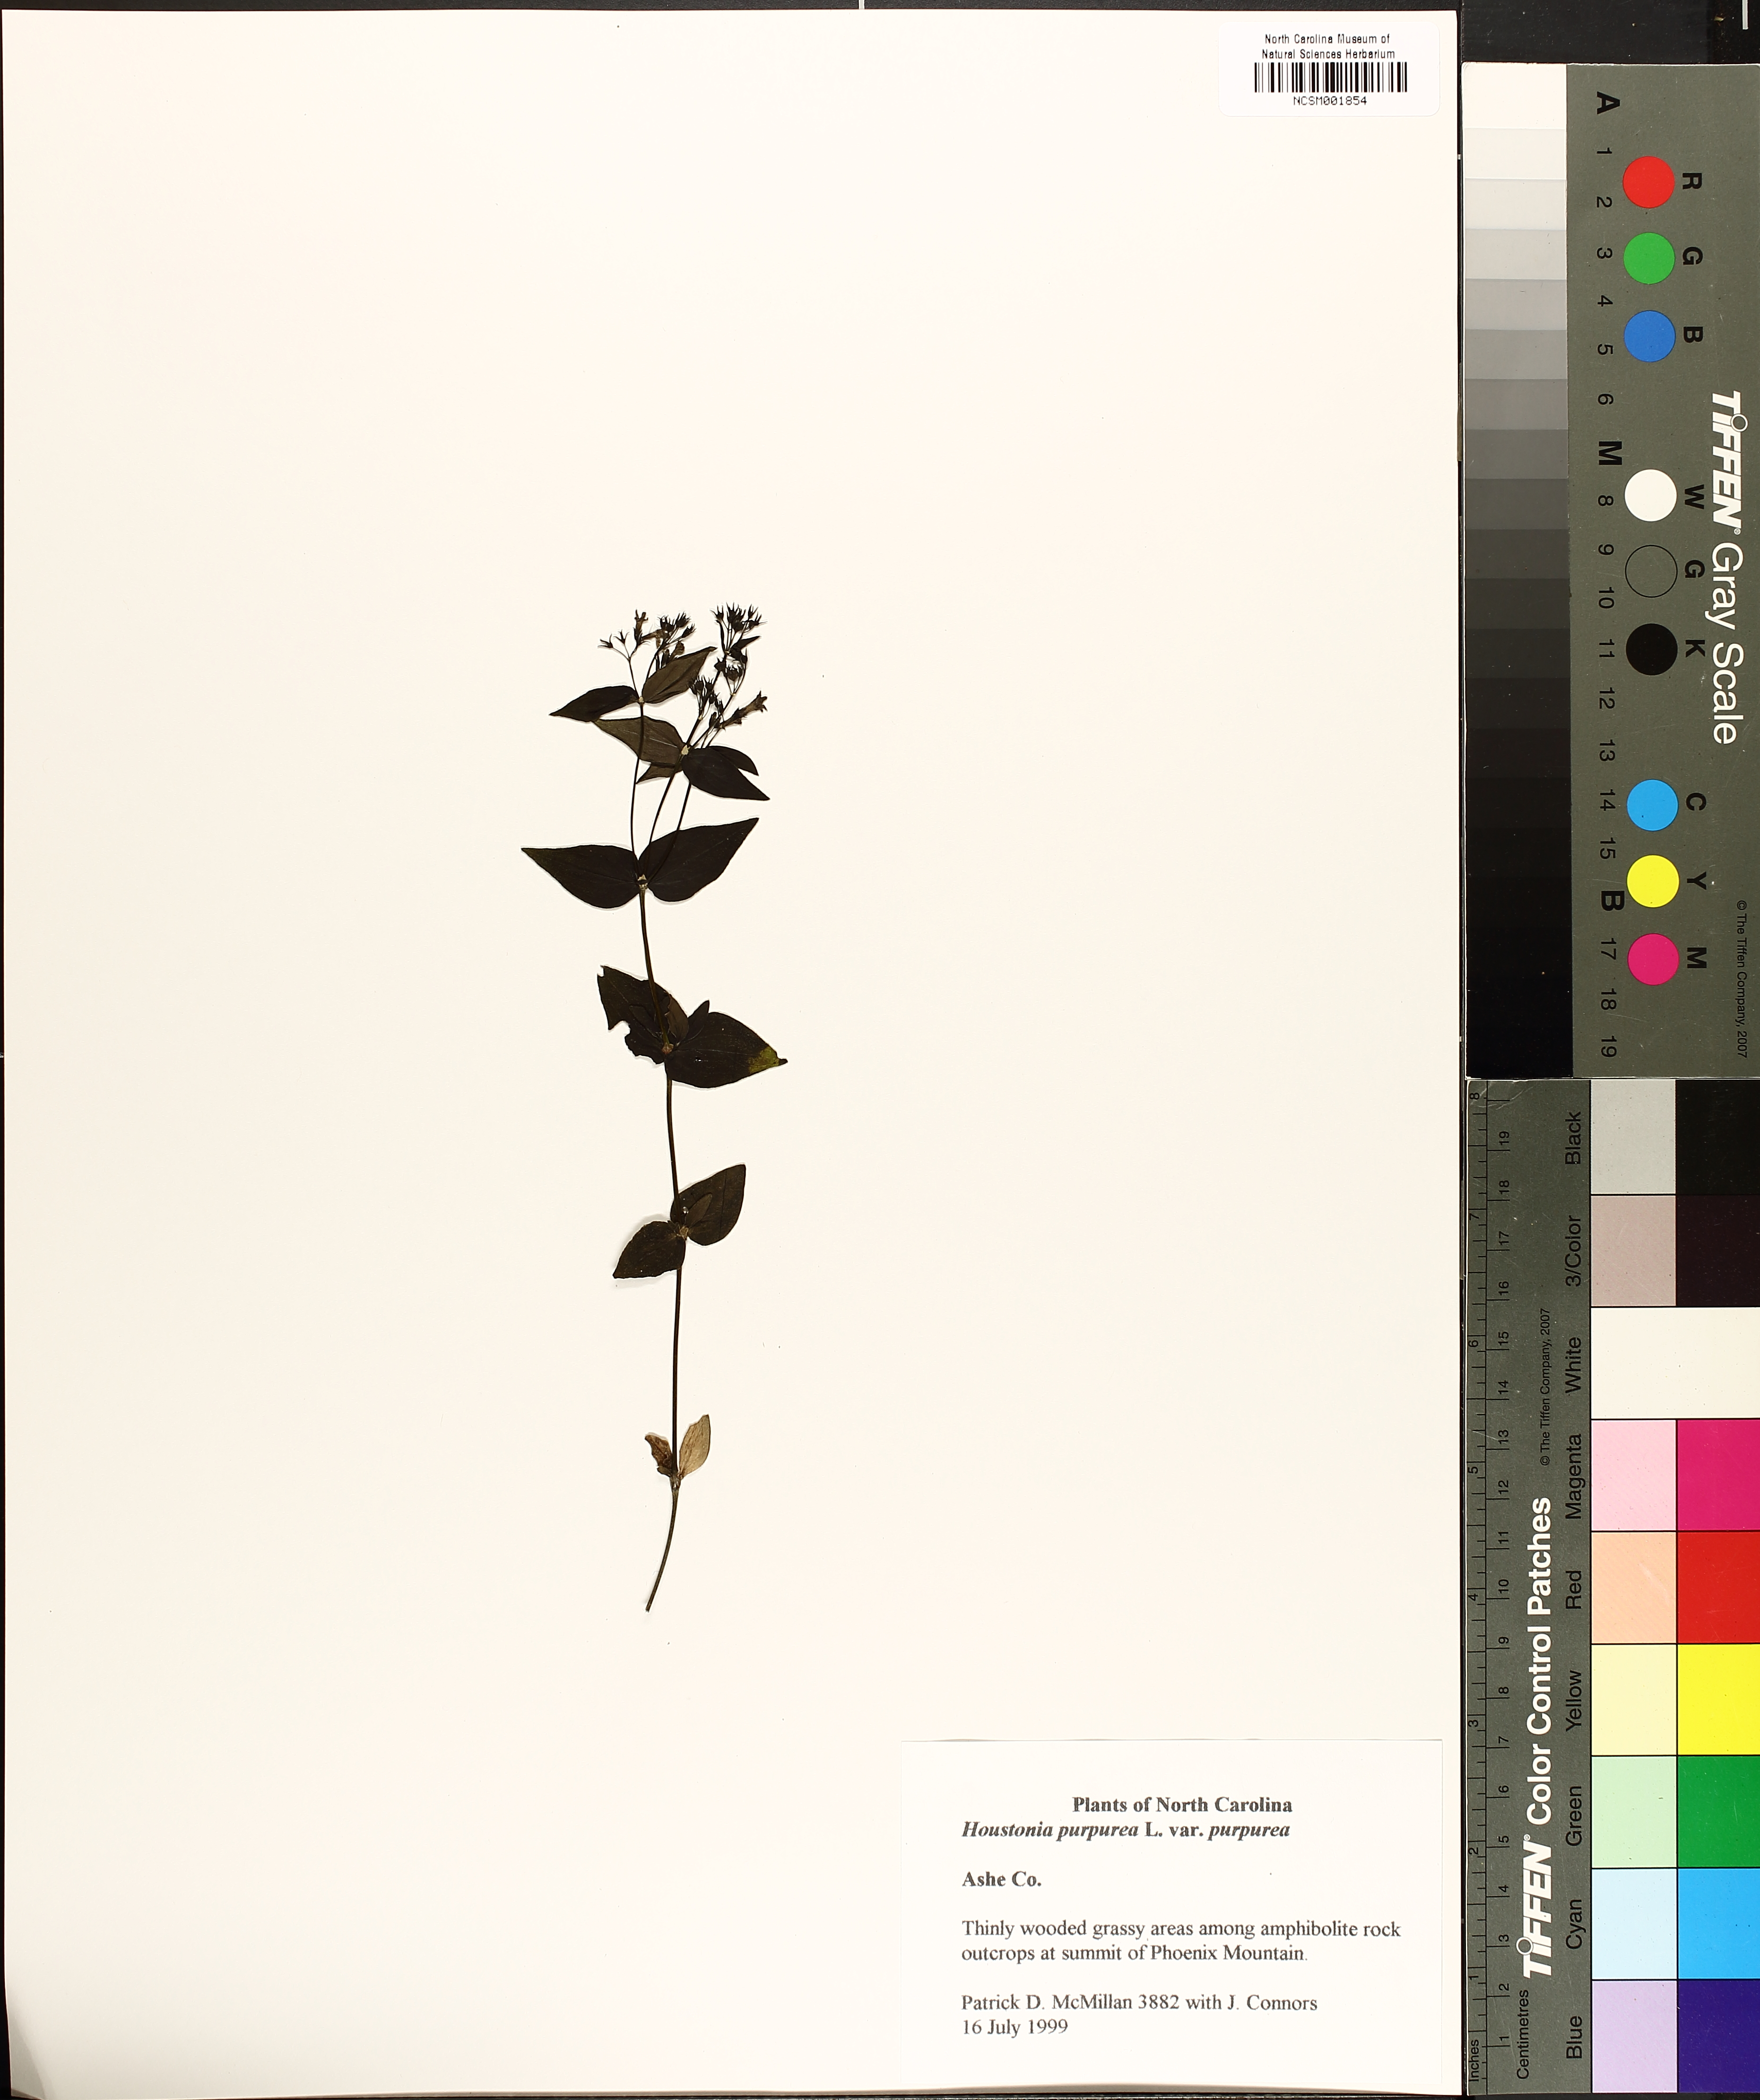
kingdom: Plantae
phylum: Tracheophyta
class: Magnoliopsida
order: Gentianales
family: Rubiaceae
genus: Houstonia
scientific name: Houstonia purpurea
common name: Summer bluet
